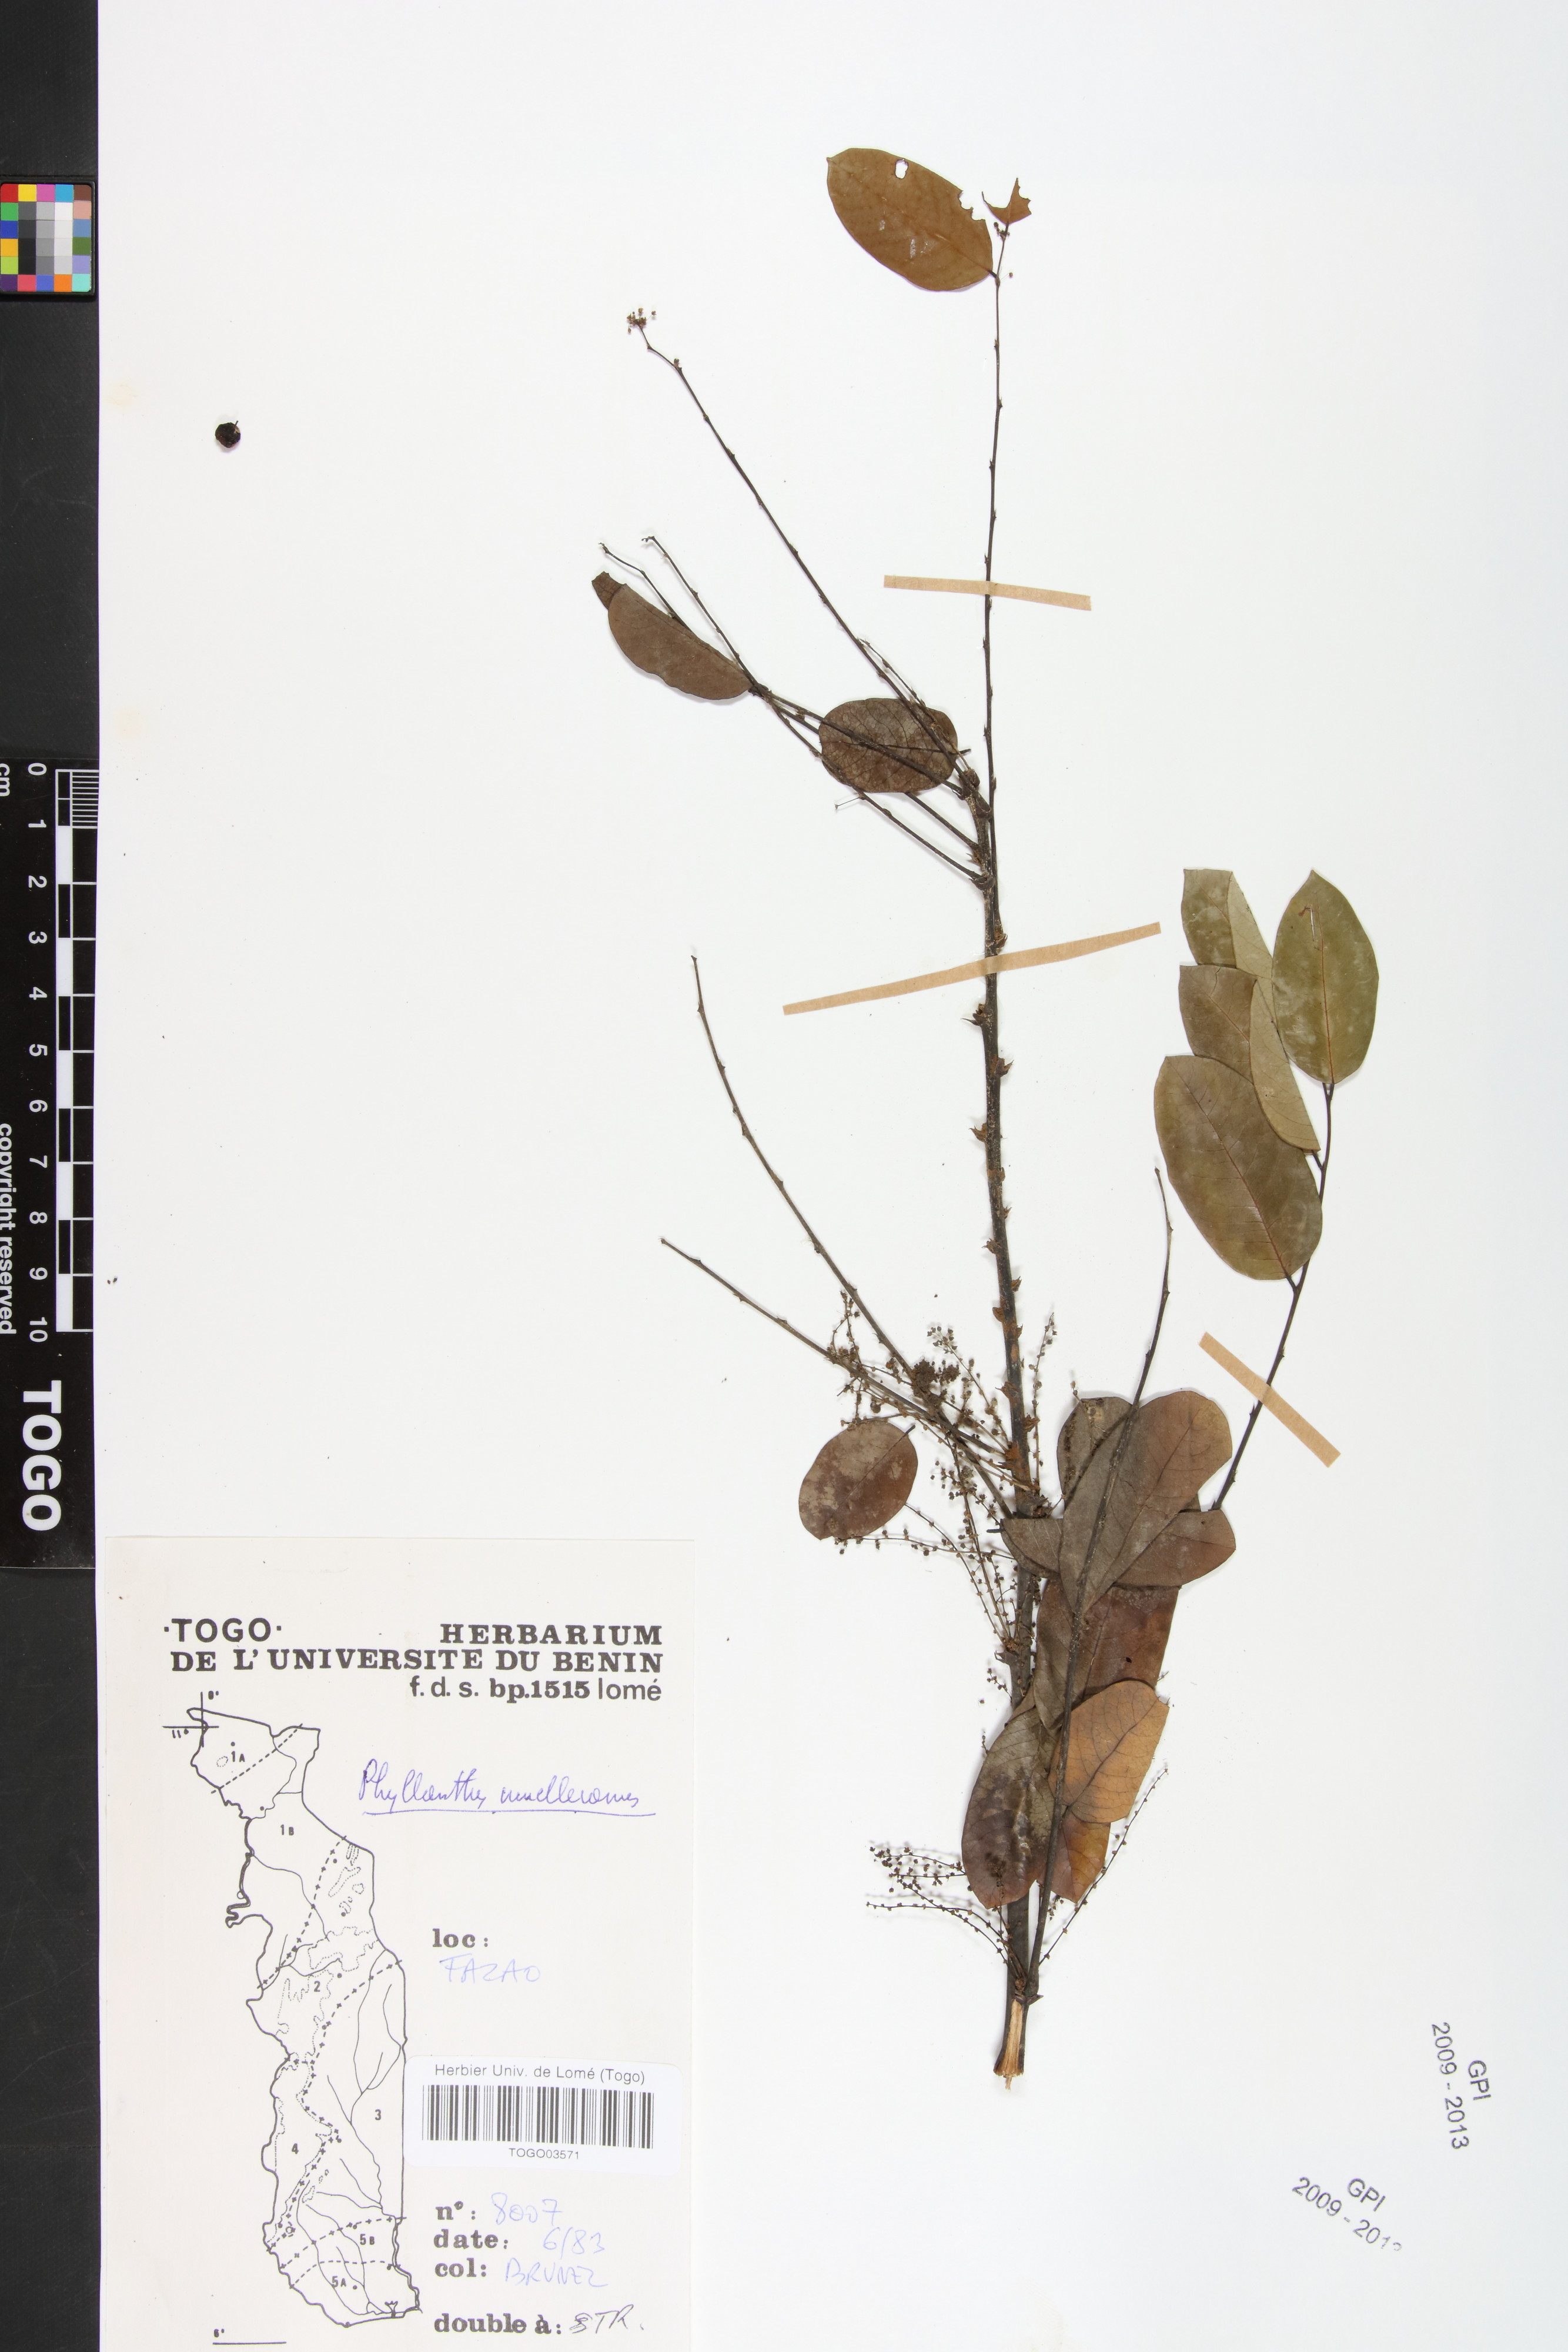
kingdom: Plantae
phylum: Tracheophyta
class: Magnoliopsida
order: Malpighiales
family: Phyllanthaceae
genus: Phyllanthus
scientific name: Phyllanthus muellerianus
